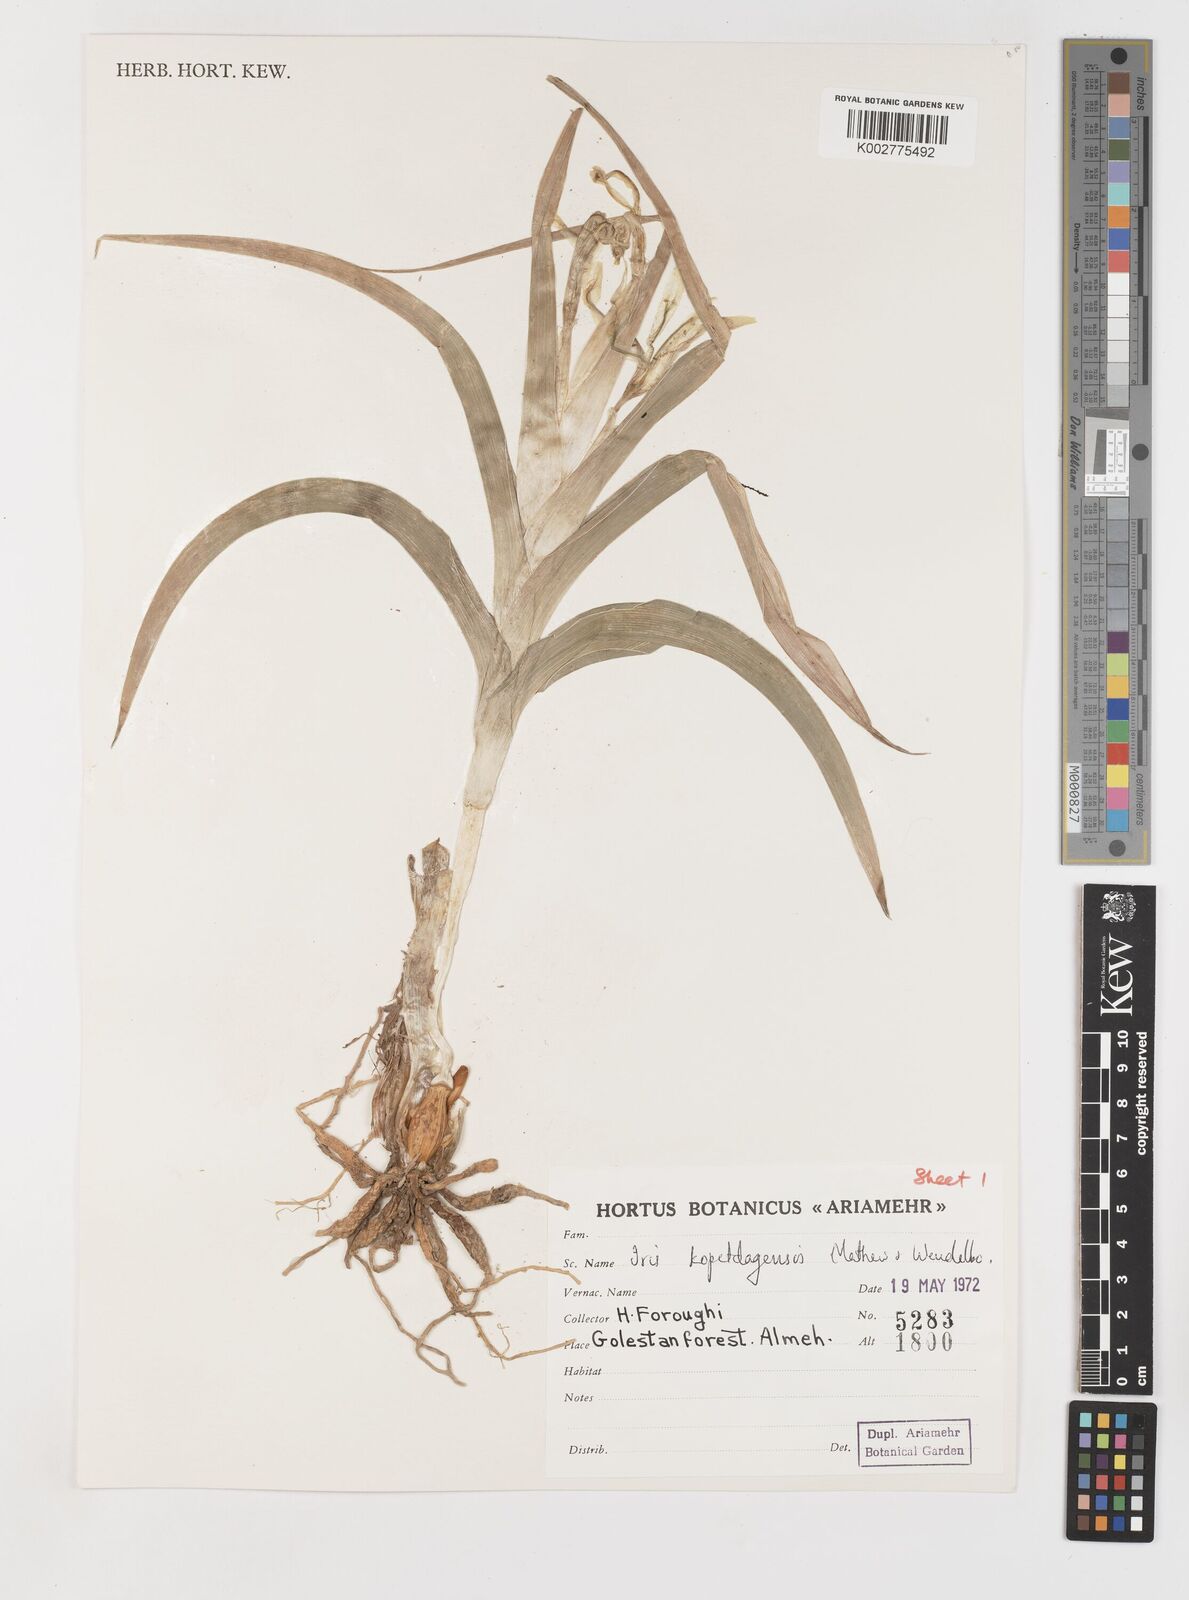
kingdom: Plantae
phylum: Tracheophyta
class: Liliopsida
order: Asparagales
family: Iridaceae
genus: Iris
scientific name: Iris kopetdagensis
